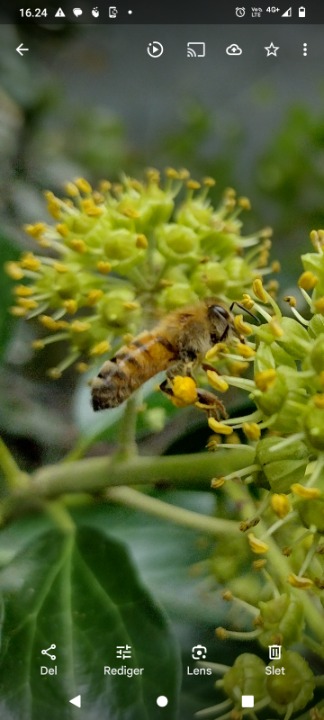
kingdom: Animalia
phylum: Arthropoda
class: Insecta
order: Hymenoptera
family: Apidae
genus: Apis
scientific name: Apis mellifera
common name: Honningbi
